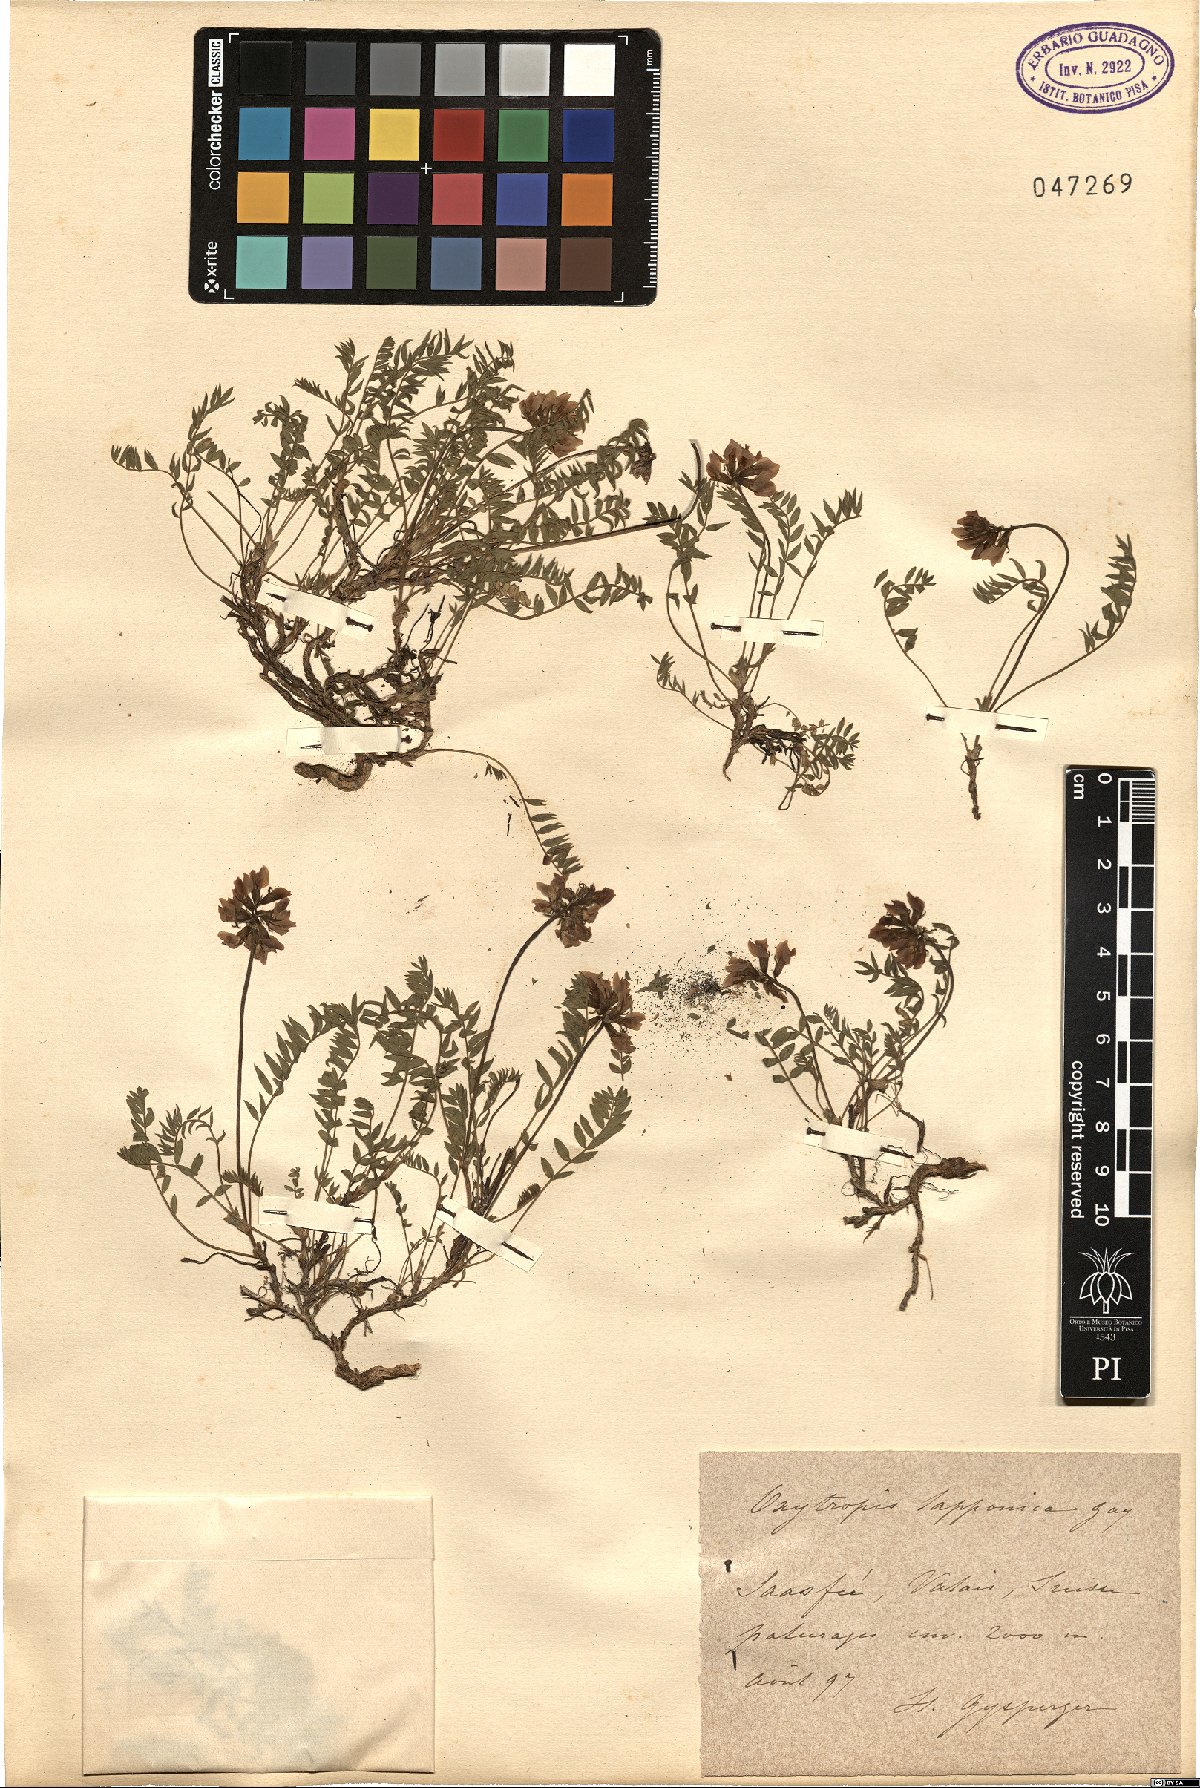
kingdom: Plantae
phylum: Tracheophyta
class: Magnoliopsida
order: Fabales
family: Fabaceae
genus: Oxytropis
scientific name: Oxytropis lapponica
